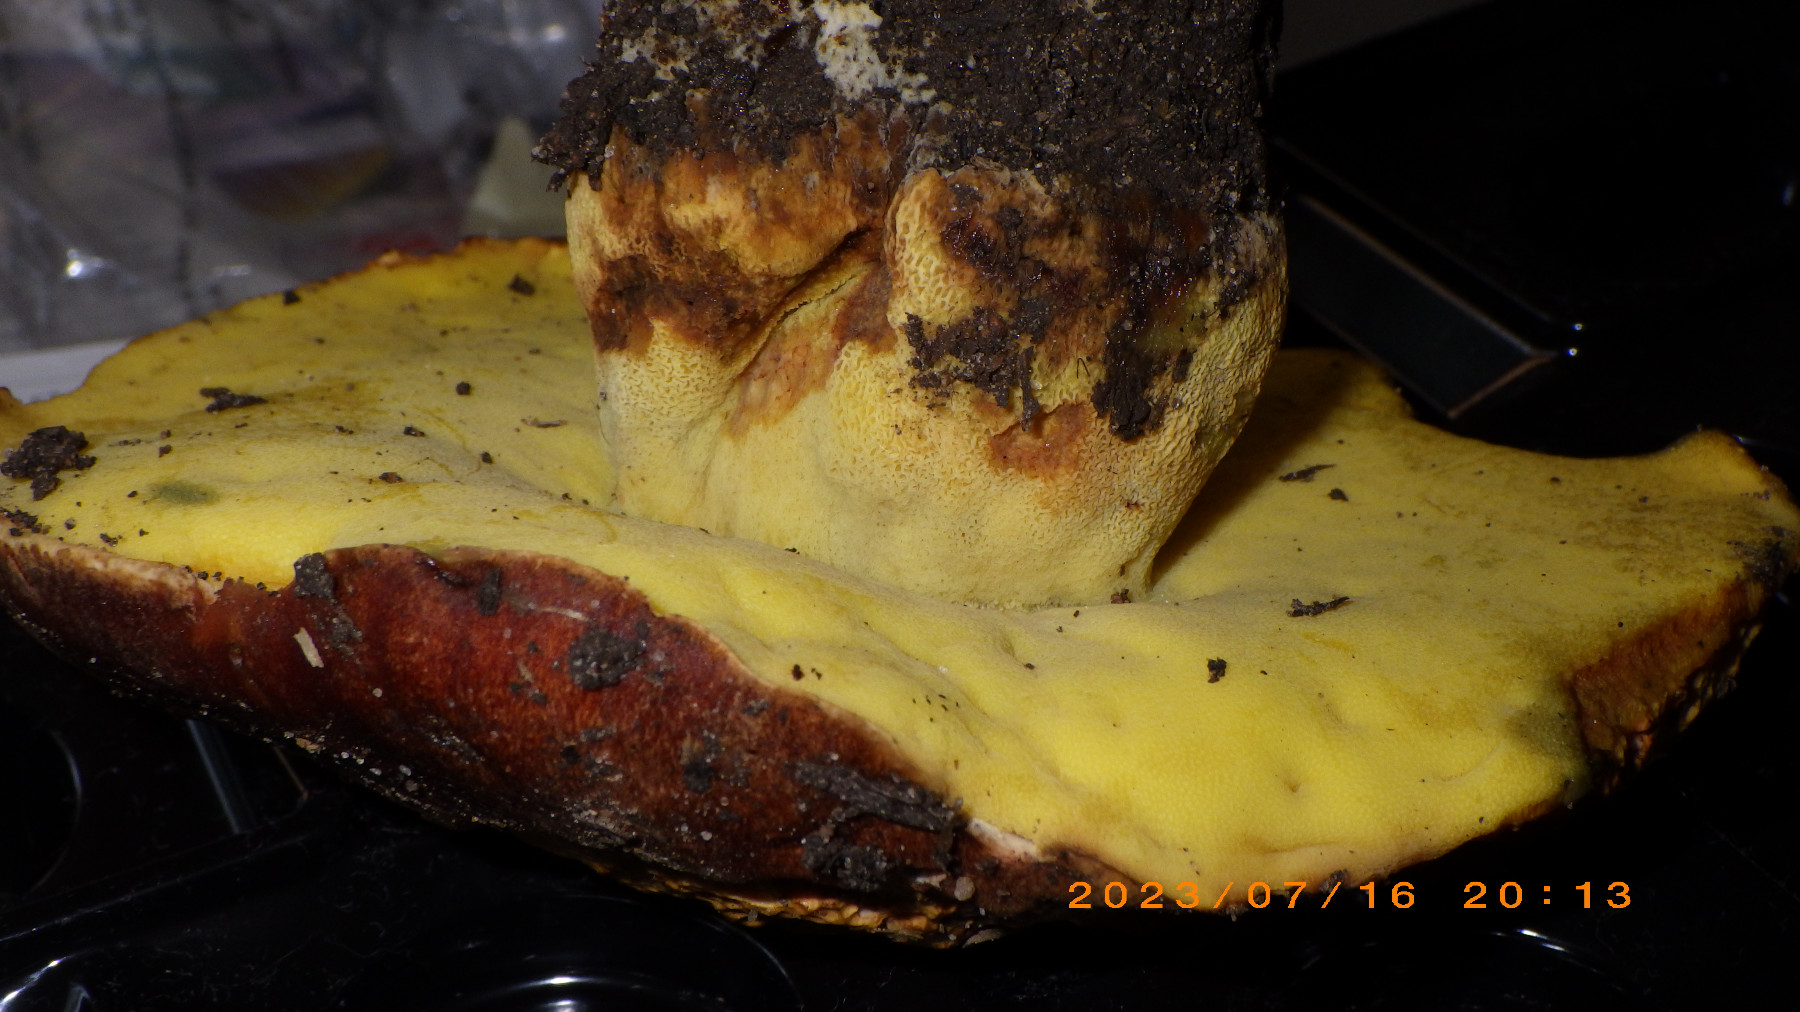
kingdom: Fungi
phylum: Basidiomycota
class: Agaricomycetes
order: Boletales
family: Boletaceae
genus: Butyriboletus
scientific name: Butyriboletus appendiculatus
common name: tenstokket rørhat
